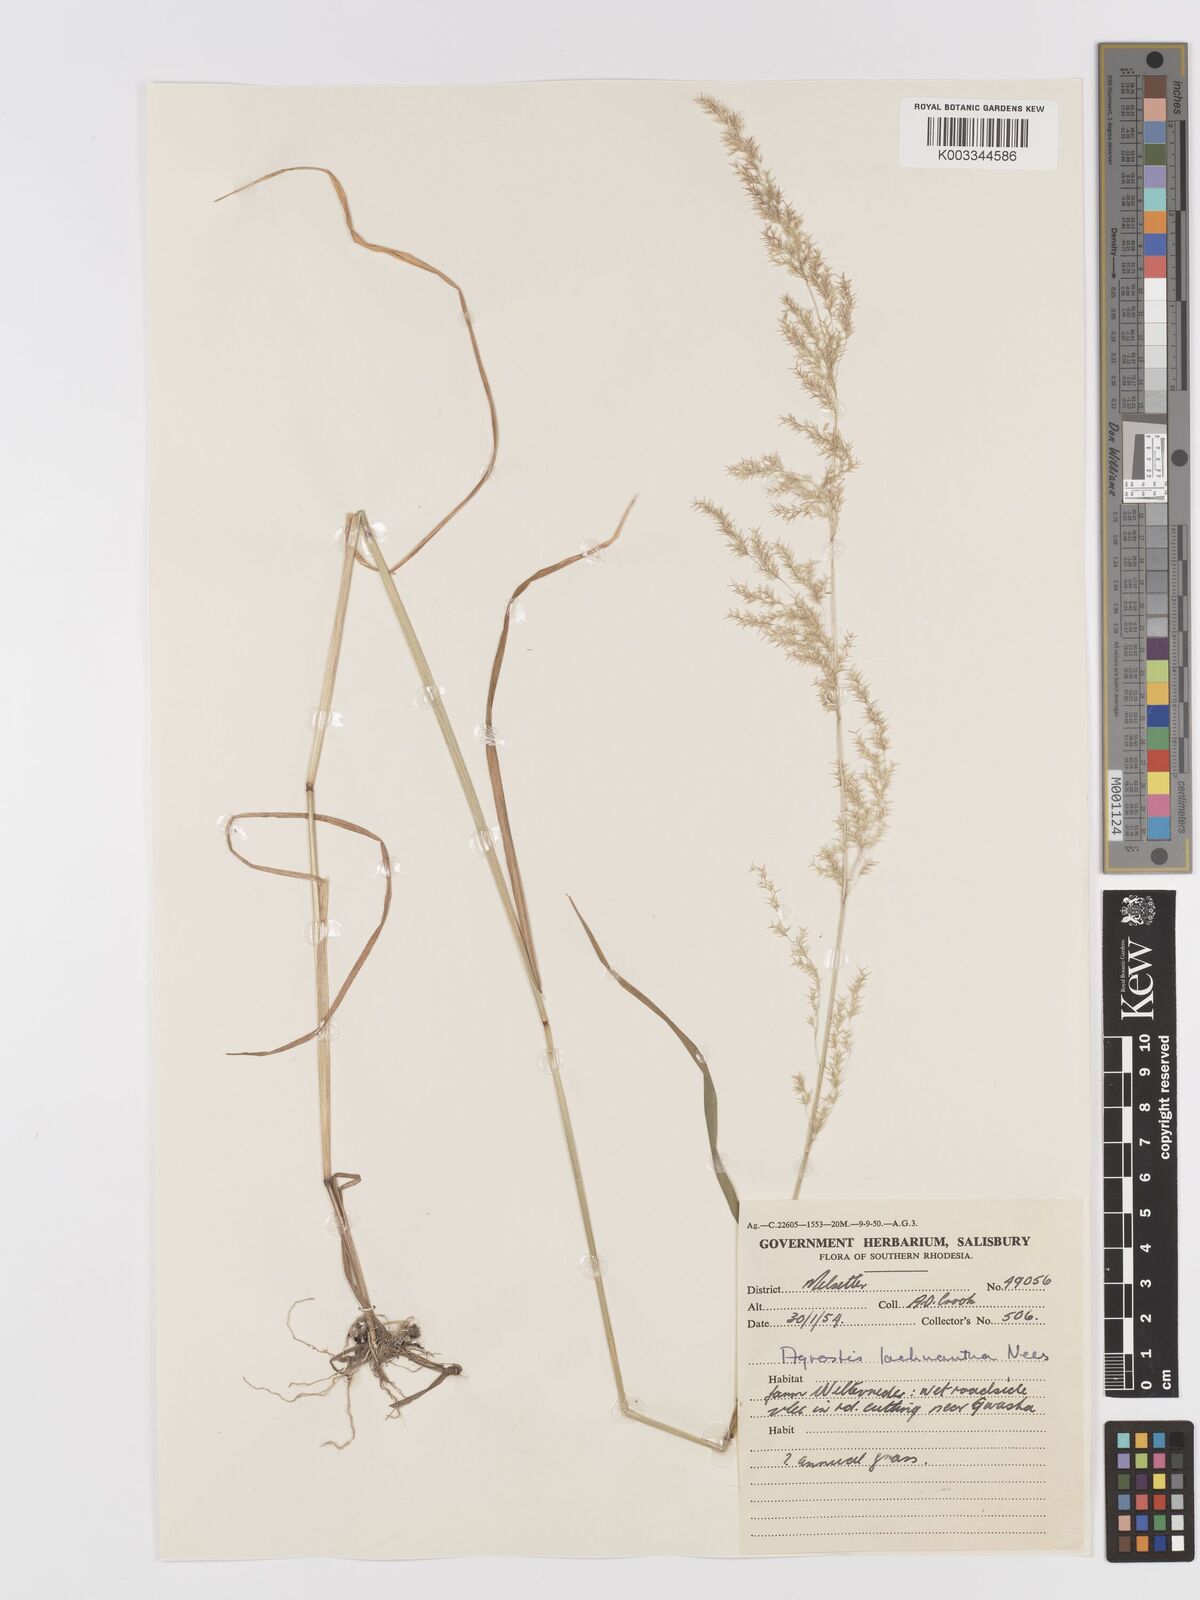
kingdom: Plantae
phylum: Tracheophyta
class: Liliopsida
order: Poales
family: Poaceae
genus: Lachnagrostis
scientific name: Lachnagrostis lachnantha
